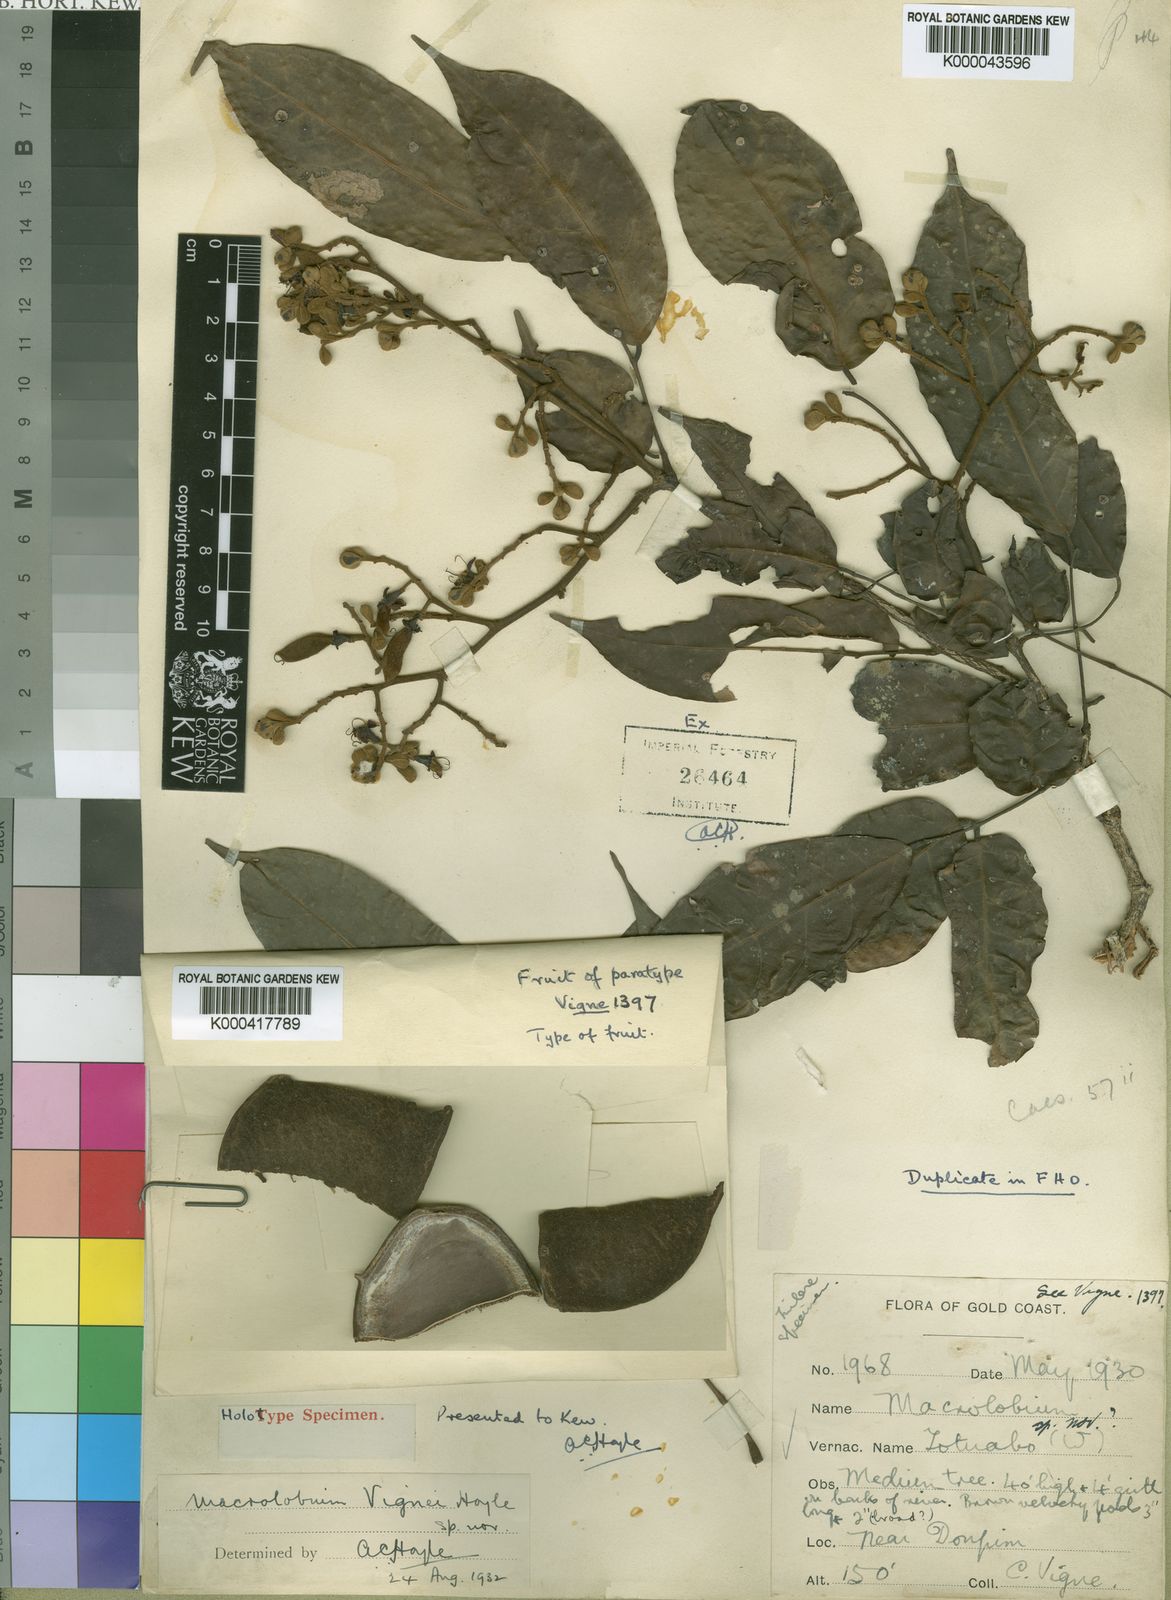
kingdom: Plantae
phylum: Tracheophyta
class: Magnoliopsida
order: Fabales
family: Fabaceae
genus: Englerodendron
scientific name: Englerodendron vignei
